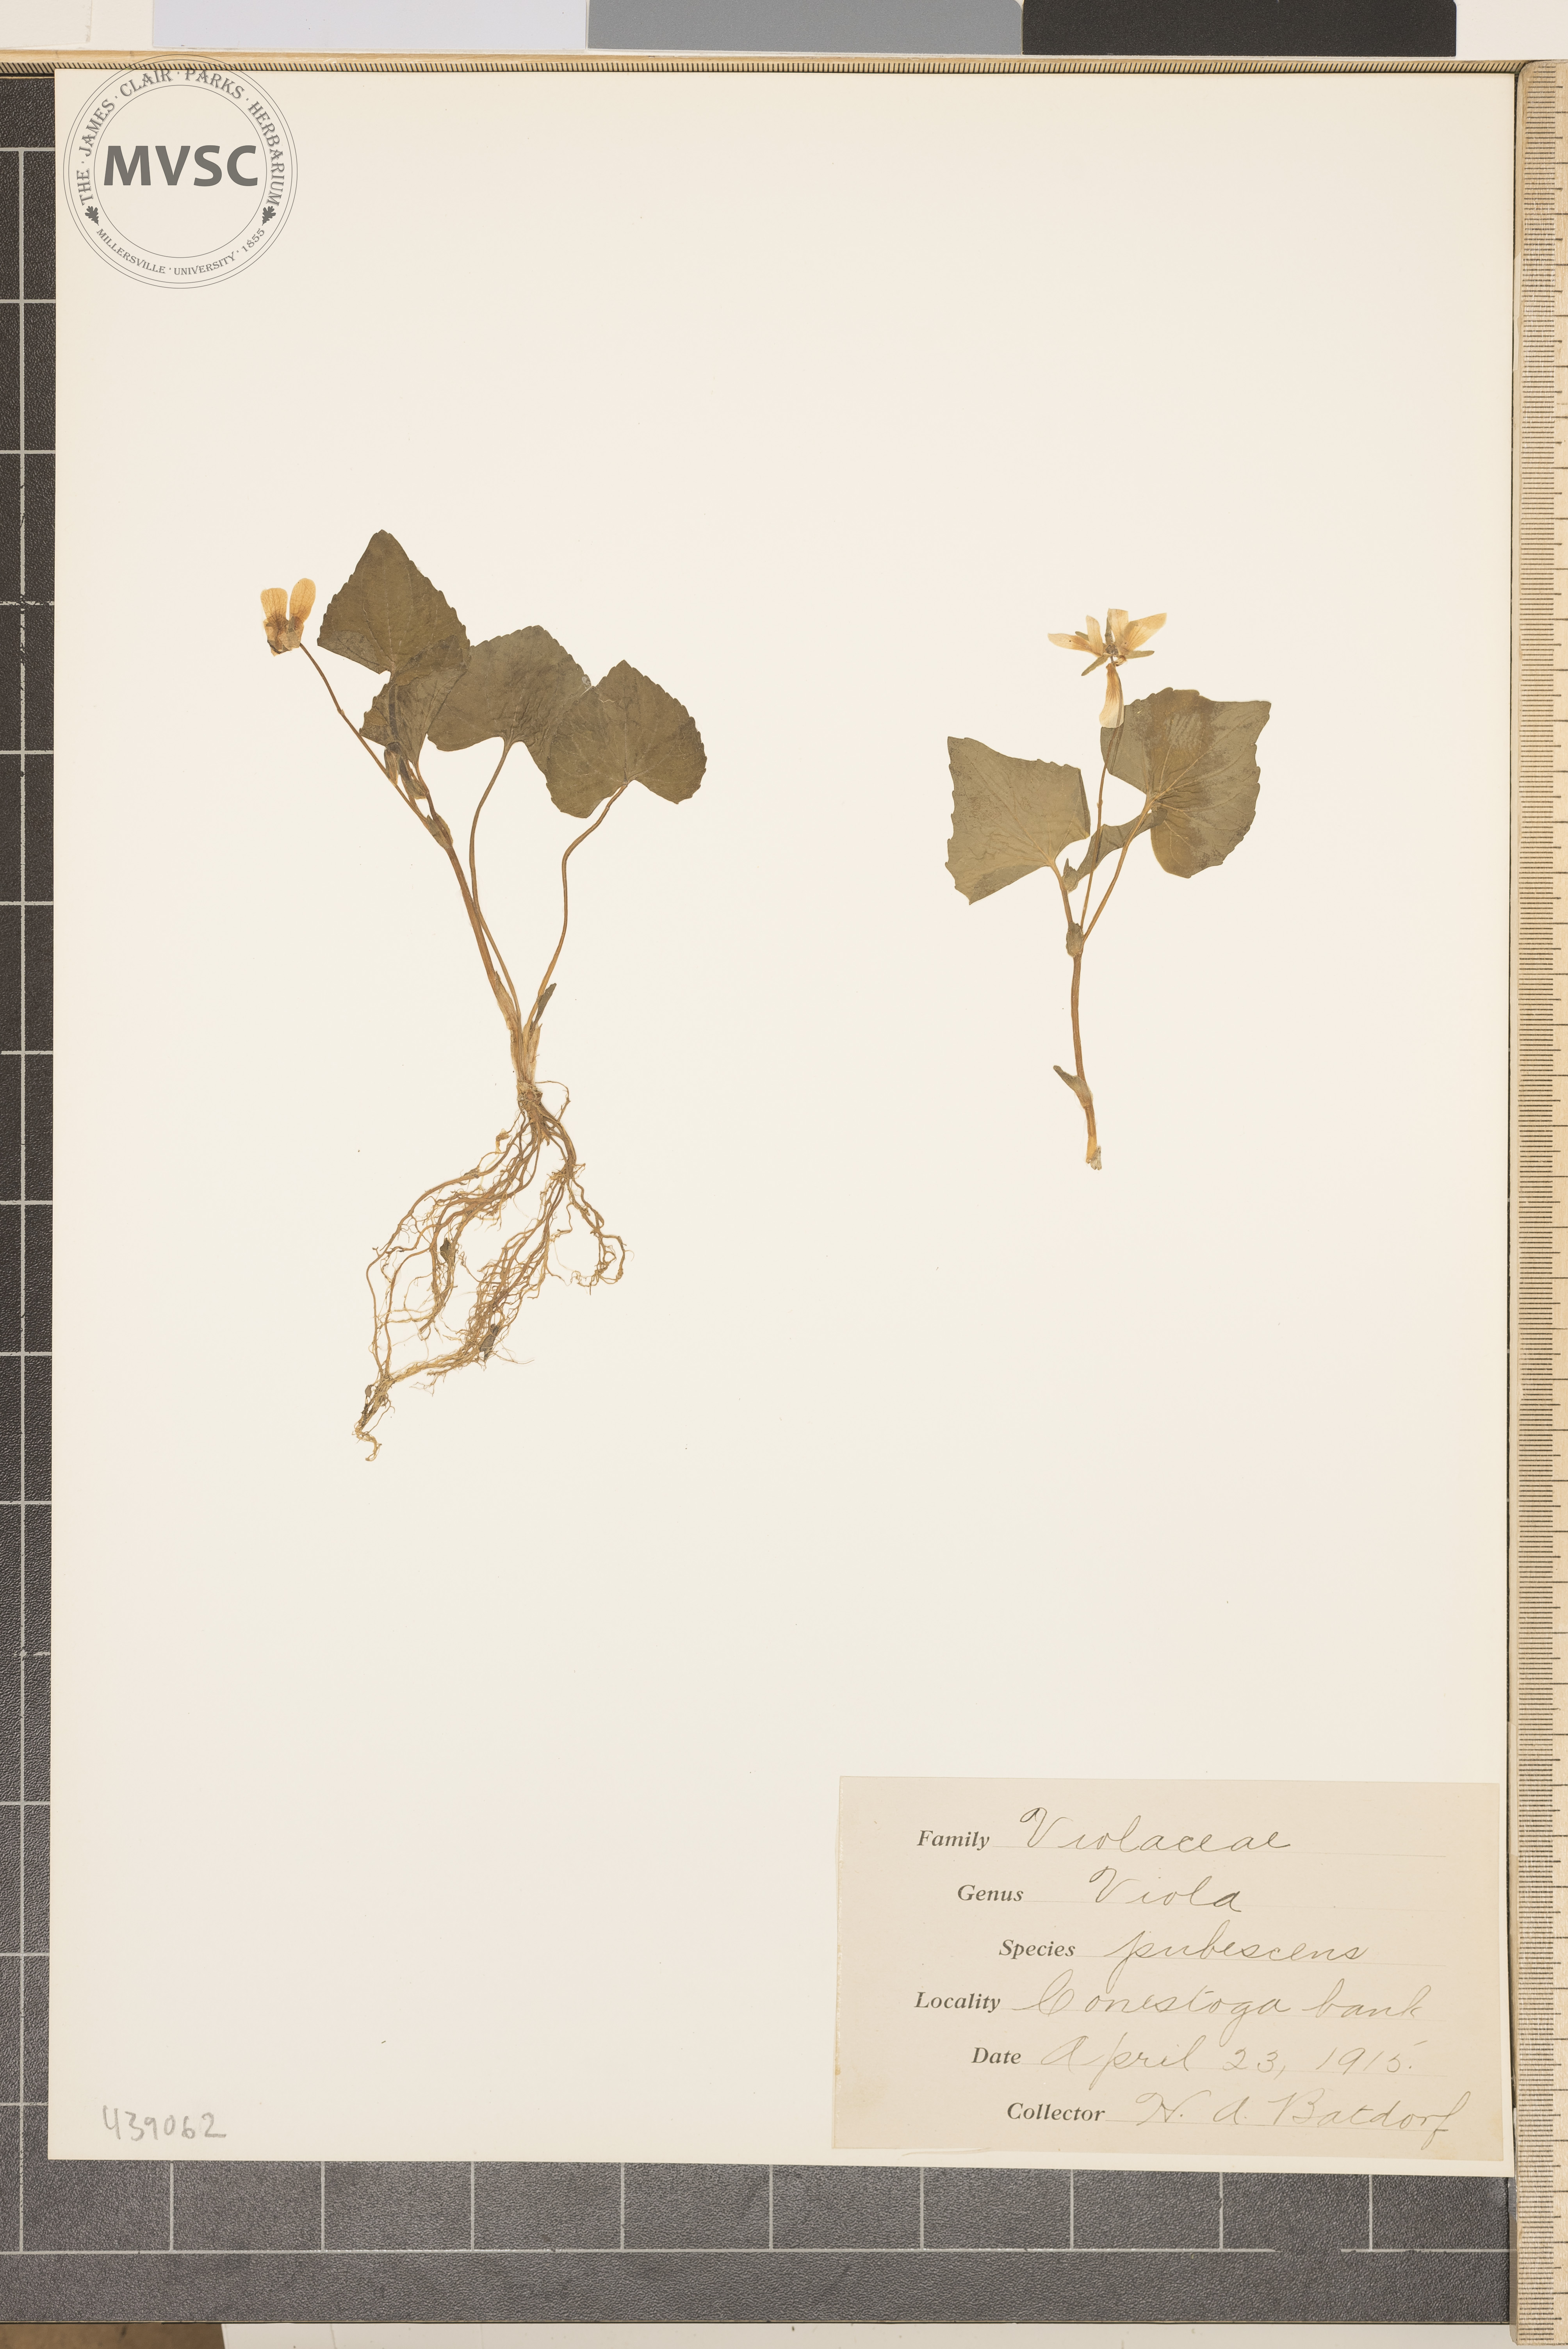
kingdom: Plantae
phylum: Tracheophyta
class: Magnoliopsida
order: Malpighiales
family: Violaceae
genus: Viola
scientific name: Viola pubescens
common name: Yellow forest violet
